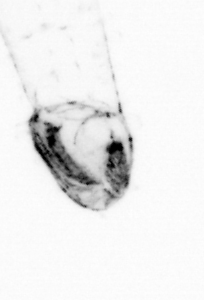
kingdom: Animalia
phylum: Chaetognatha
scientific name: Chaetognatha
